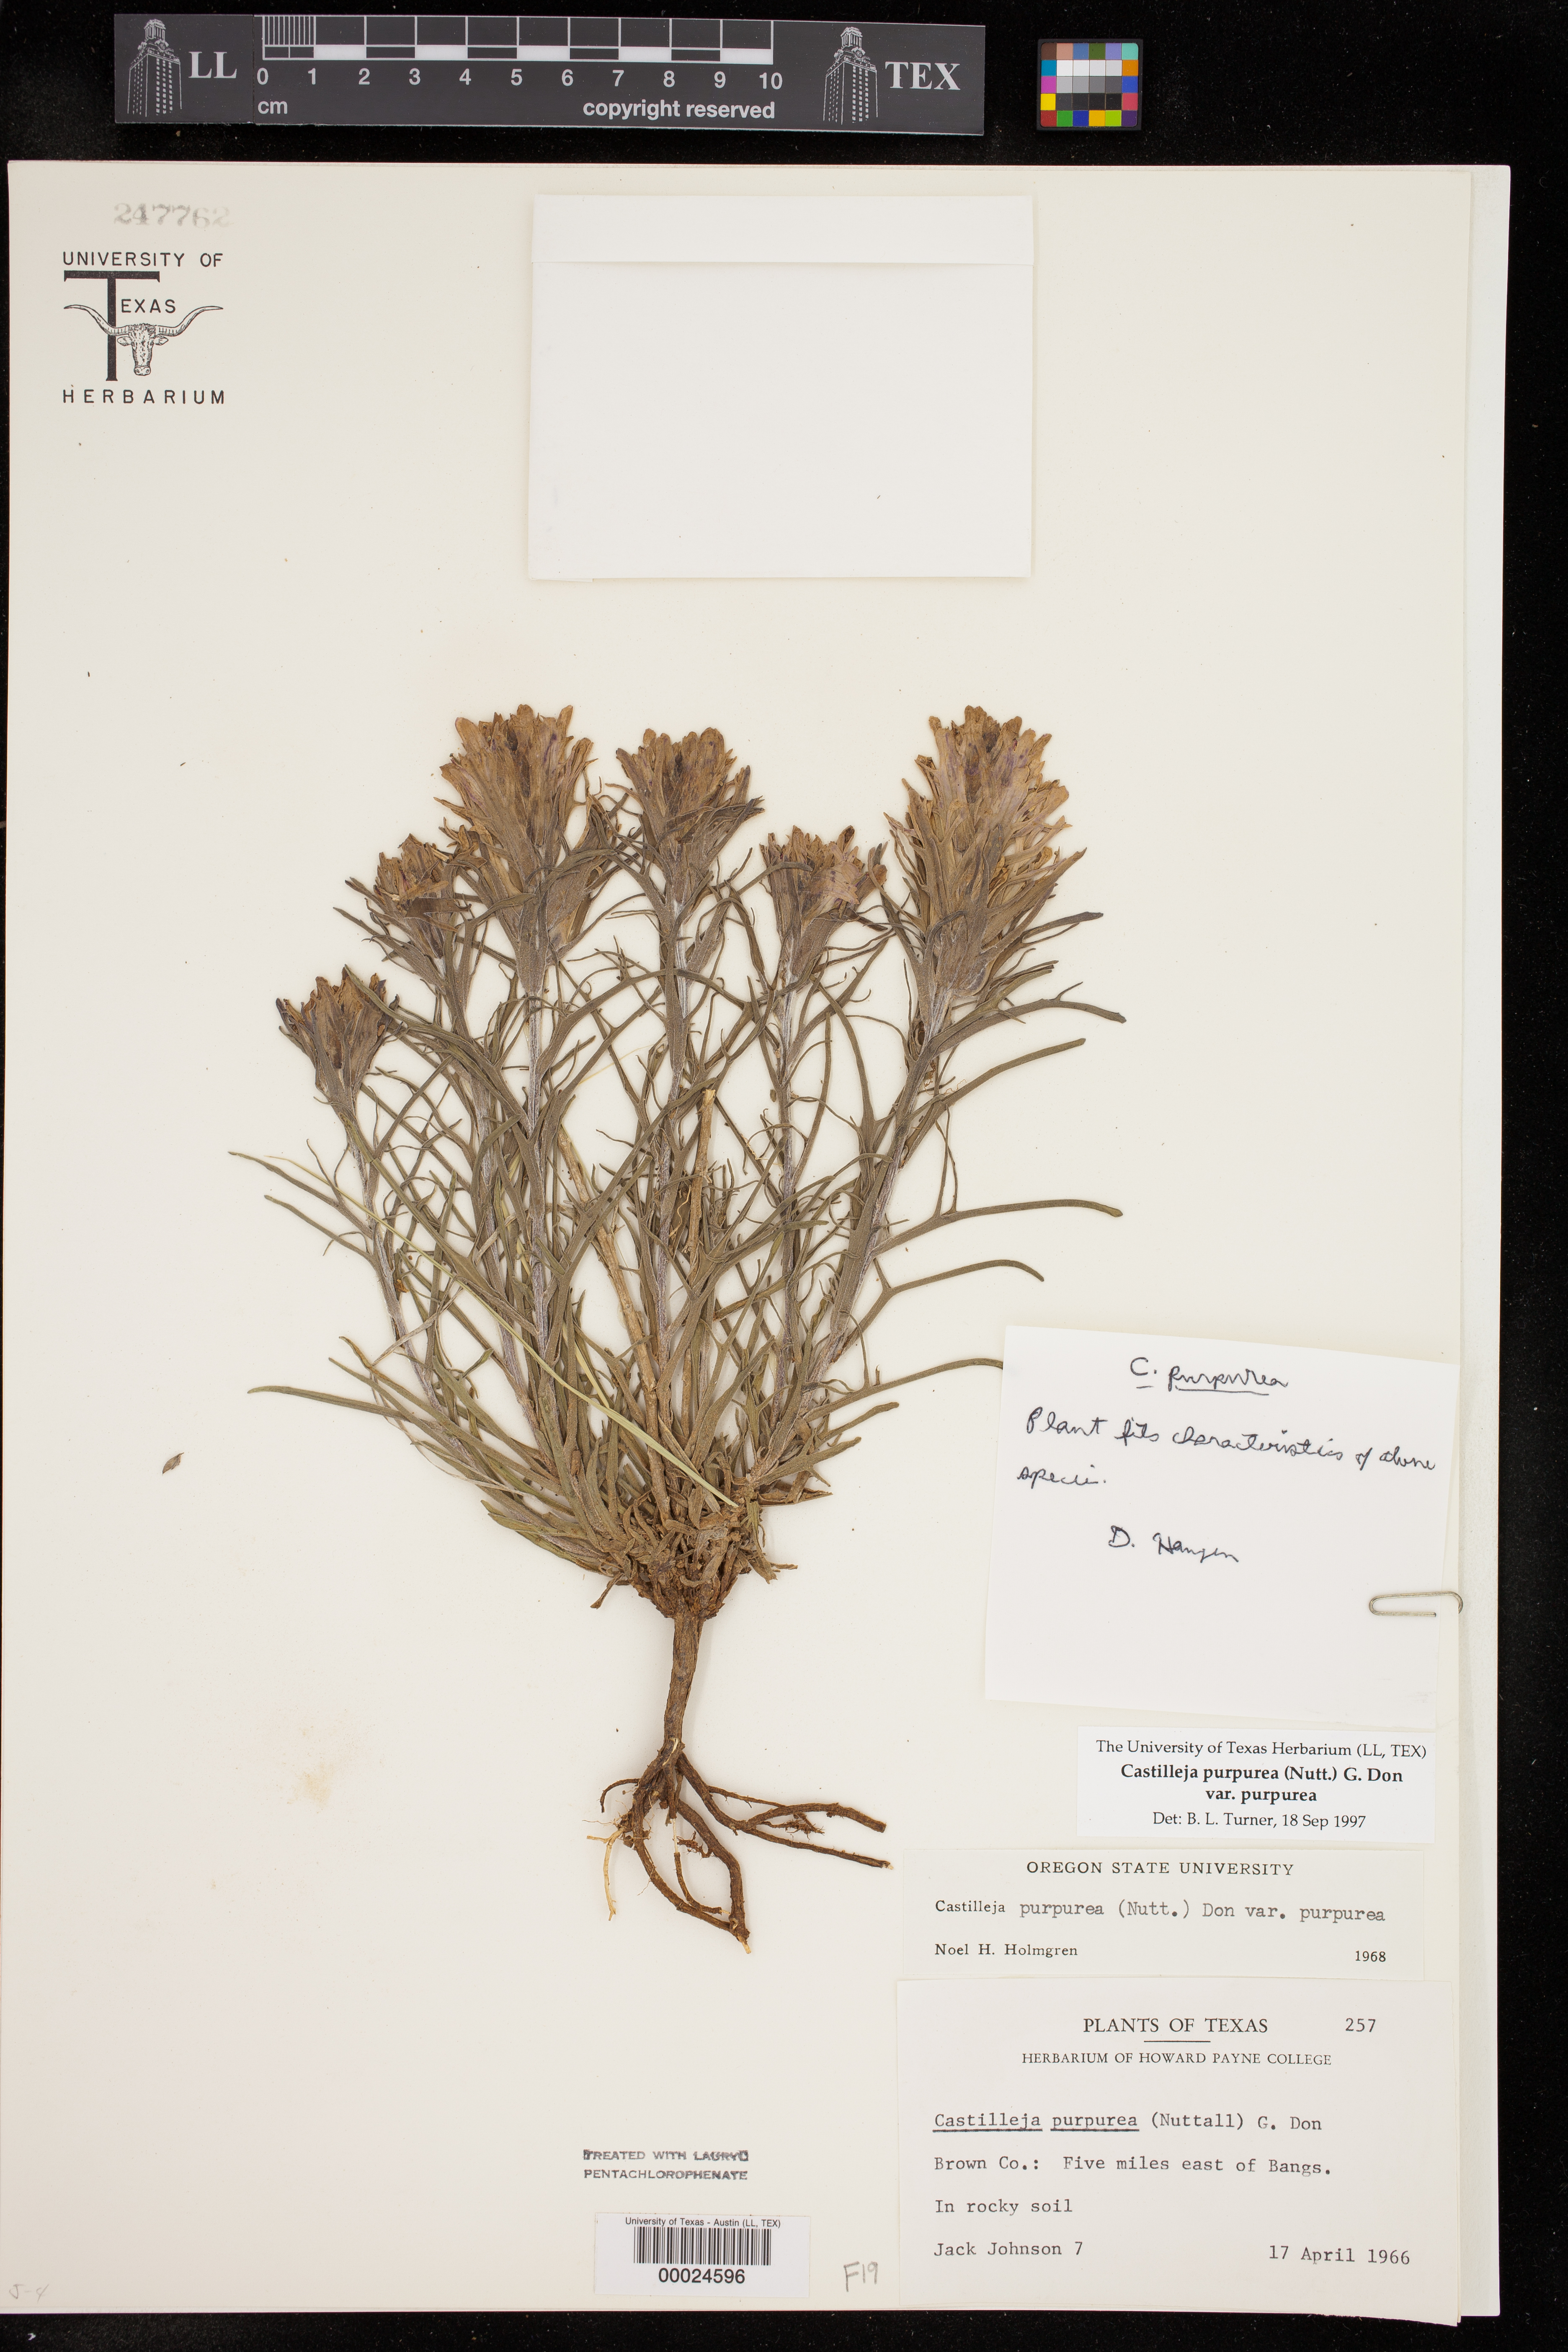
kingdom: Plantae
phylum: Tracheophyta
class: Magnoliopsida
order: Lamiales
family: Orobanchaceae
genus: Castilleja
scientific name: Castilleja purpurea
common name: Plains paintbrush
